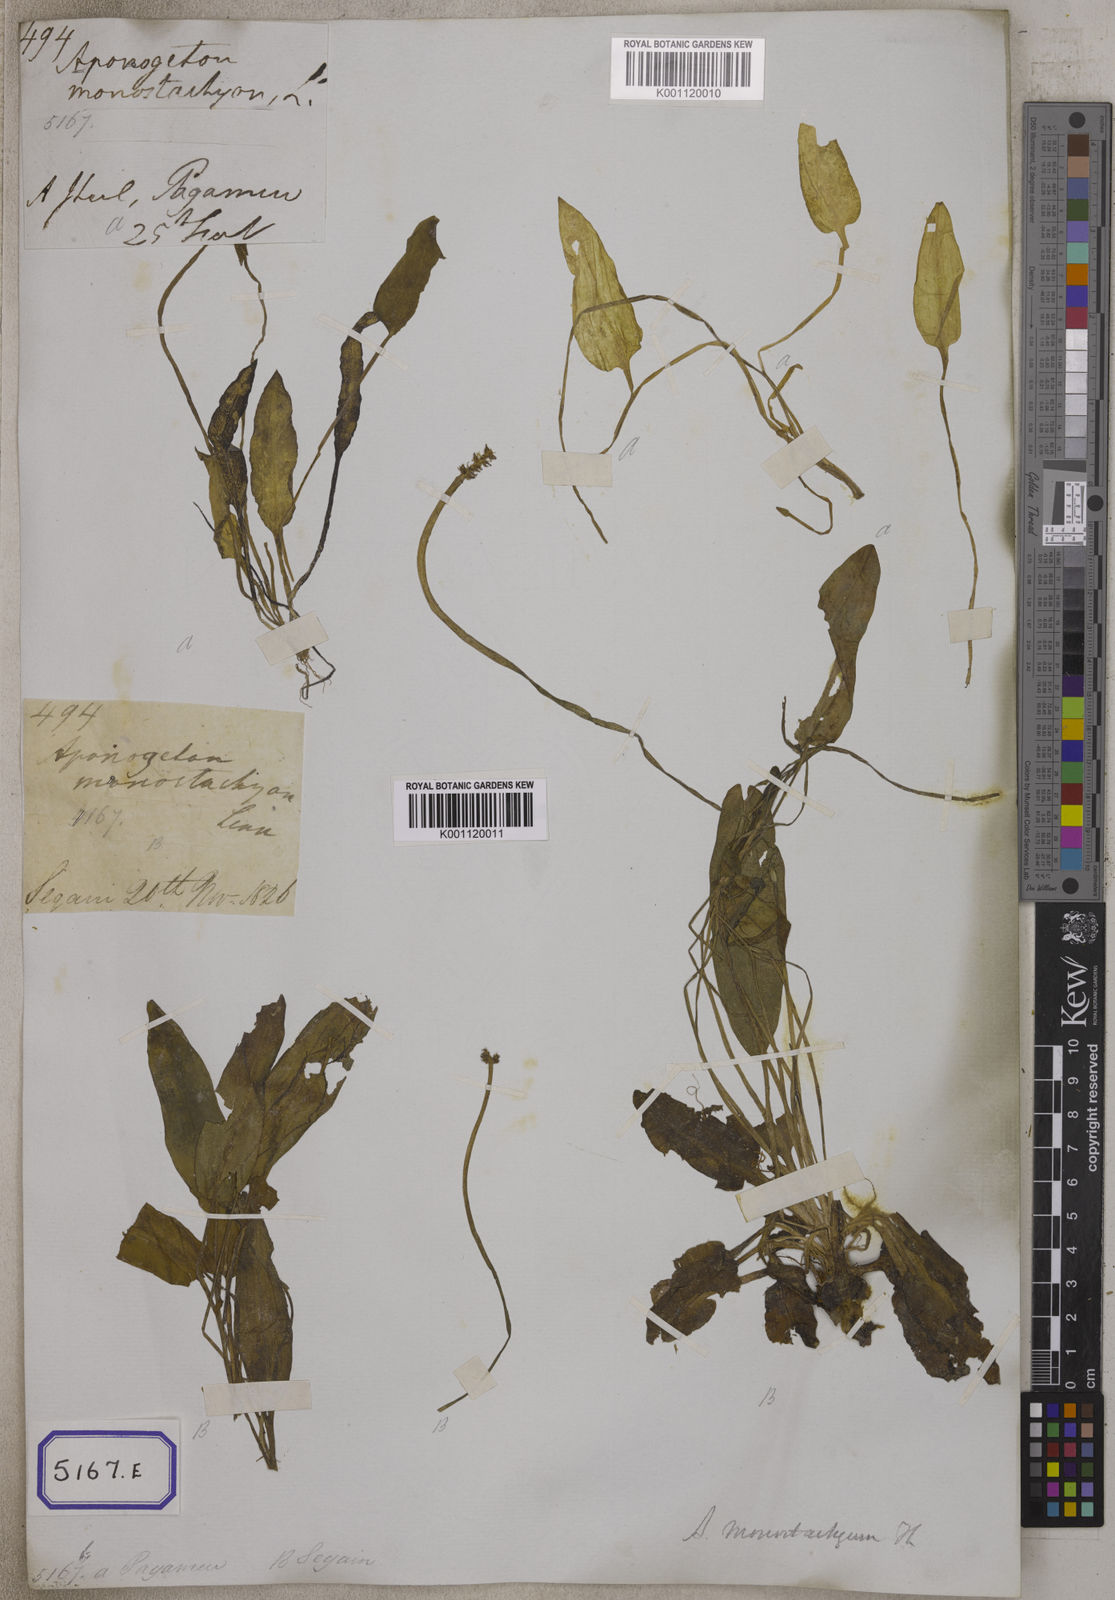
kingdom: Plantae
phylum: Tracheophyta
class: Liliopsida
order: Alismatales
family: Aponogetonaceae
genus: Aponogeton
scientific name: Aponogeton
